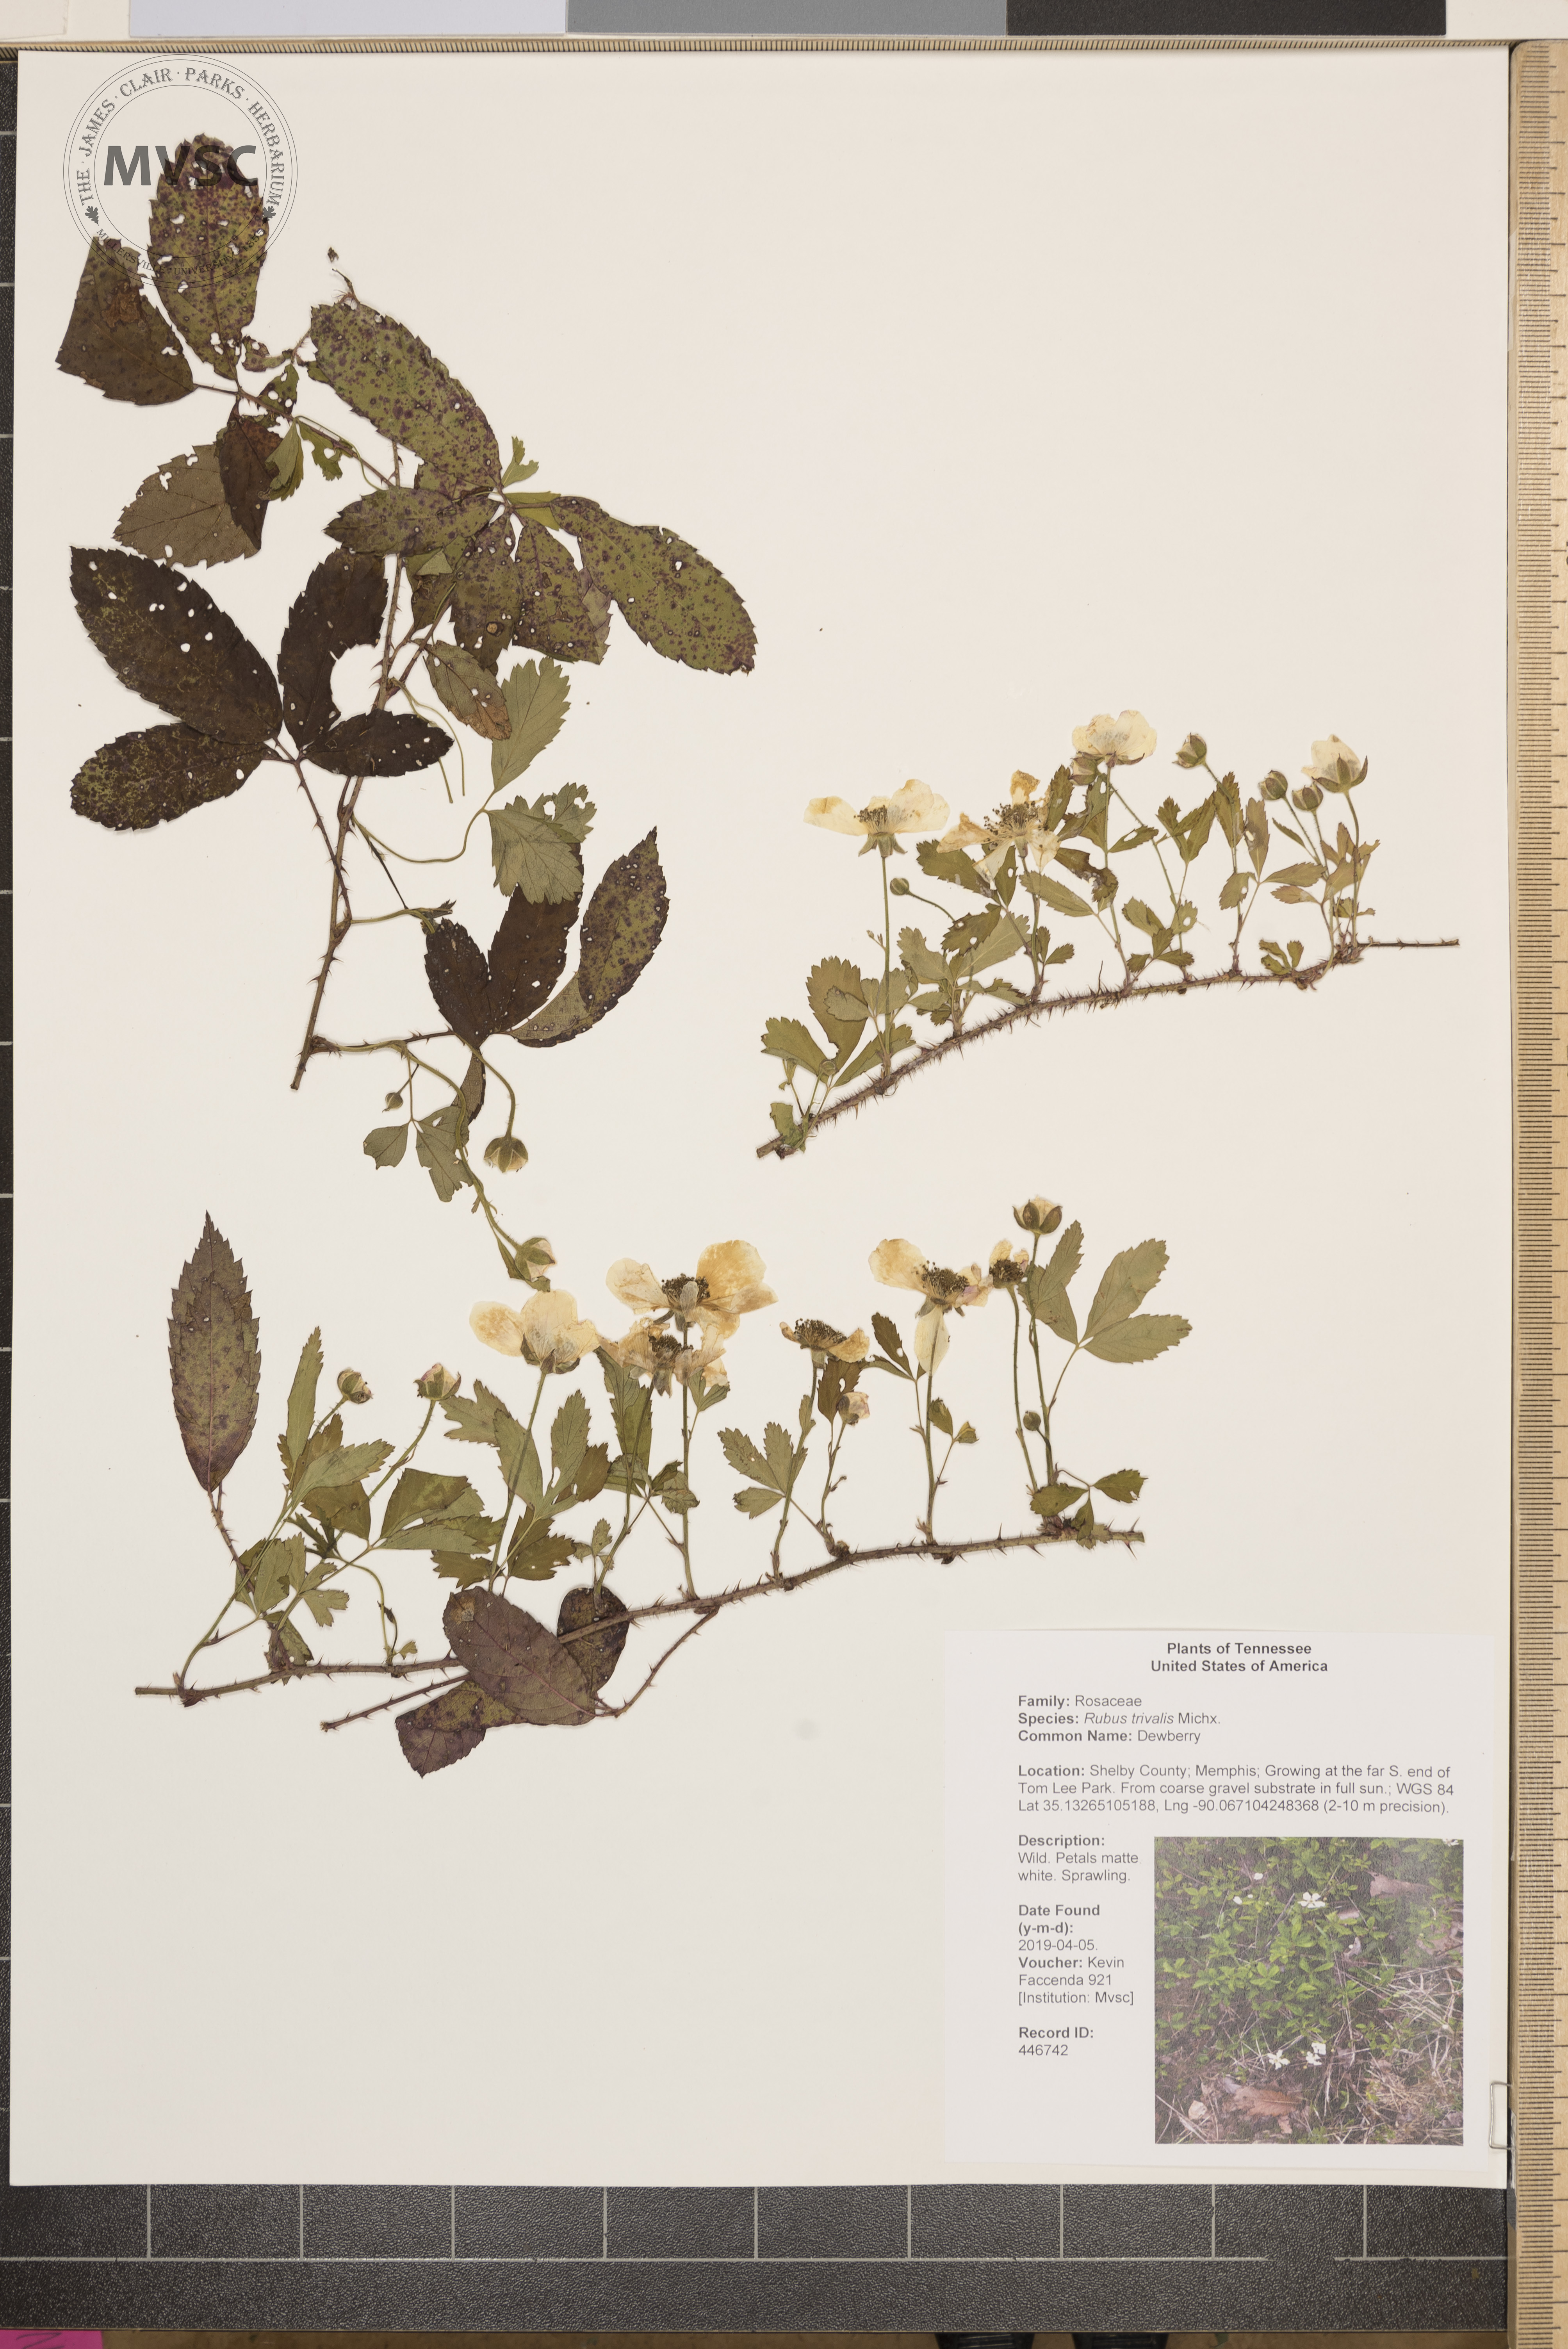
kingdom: Plantae
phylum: Tracheophyta
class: Magnoliopsida
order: Rosales
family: Rosaceae
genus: Rubus
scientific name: Rubus trivialis
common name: Dewberry
